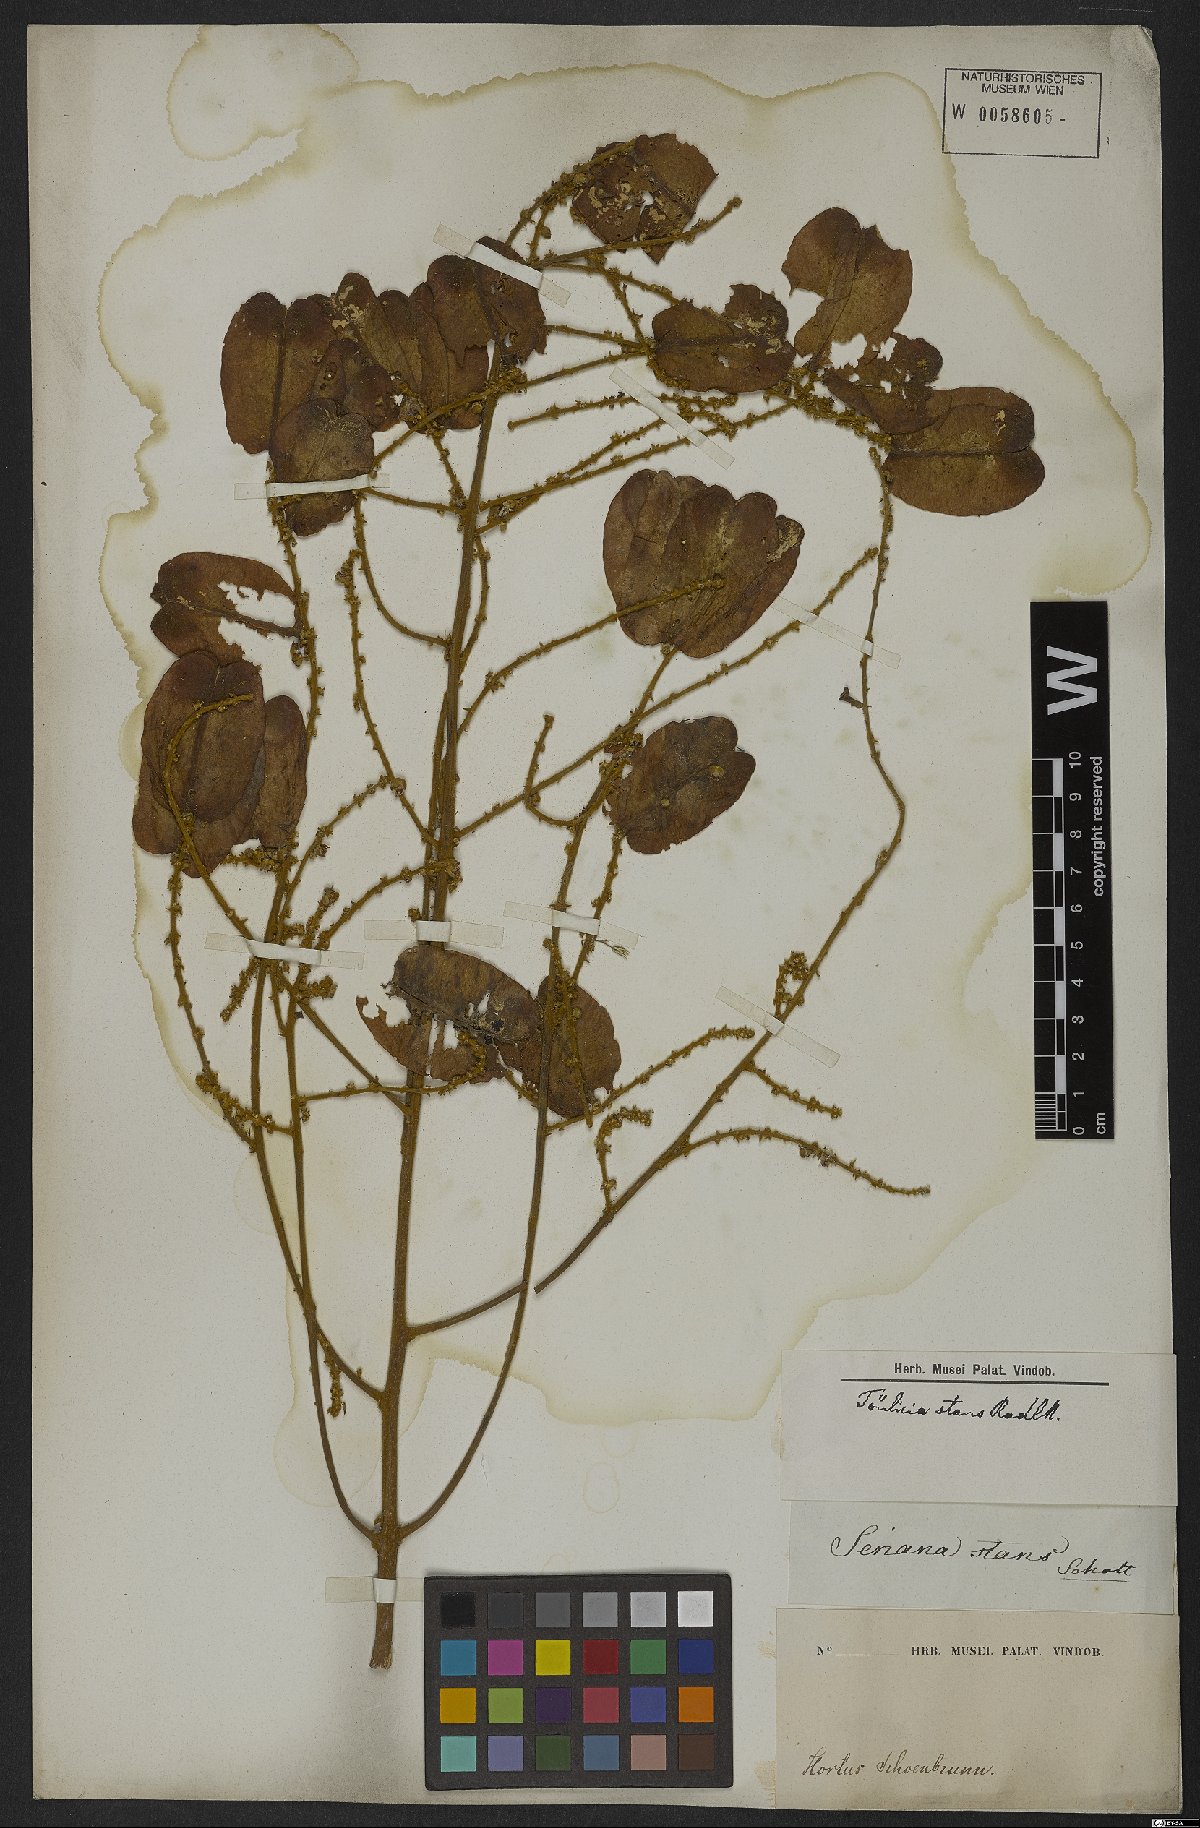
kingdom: Plantae
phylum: Tracheophyta
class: Magnoliopsida
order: Sapindales
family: Sapindaceae
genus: Toulicia
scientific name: Toulicia stans
